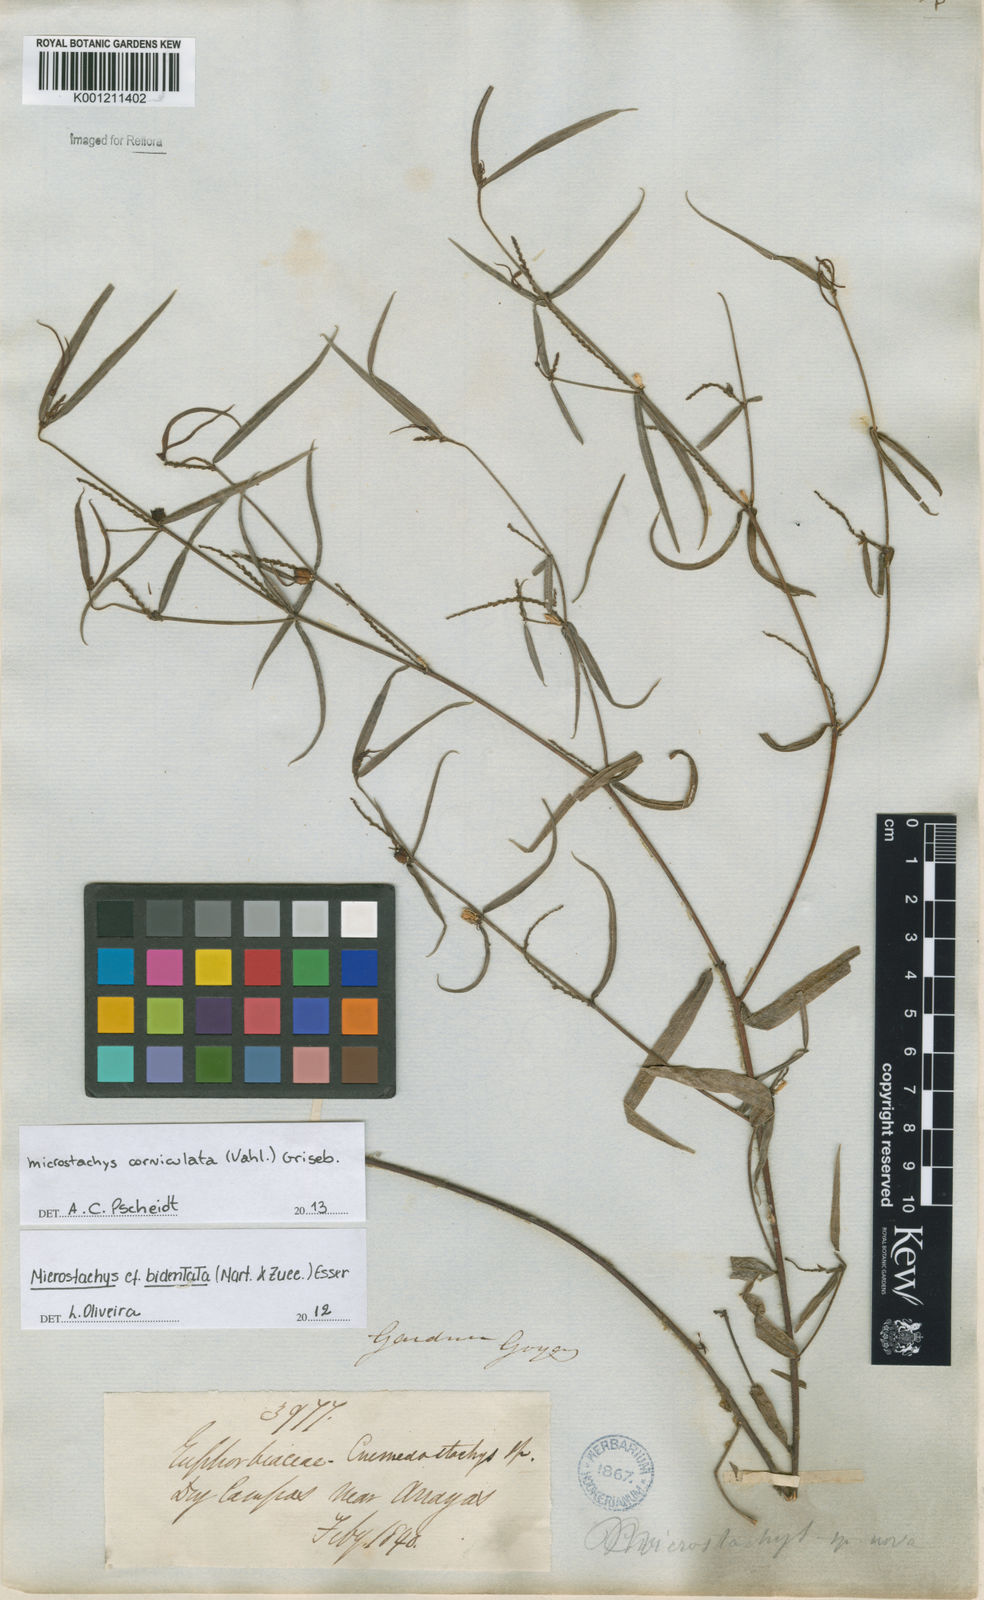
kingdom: Plantae
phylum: Tracheophyta
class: Magnoliopsida
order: Malpighiales
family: Euphorbiaceae
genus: Microstachys
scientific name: Microstachys corniculata
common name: Hato tejas
